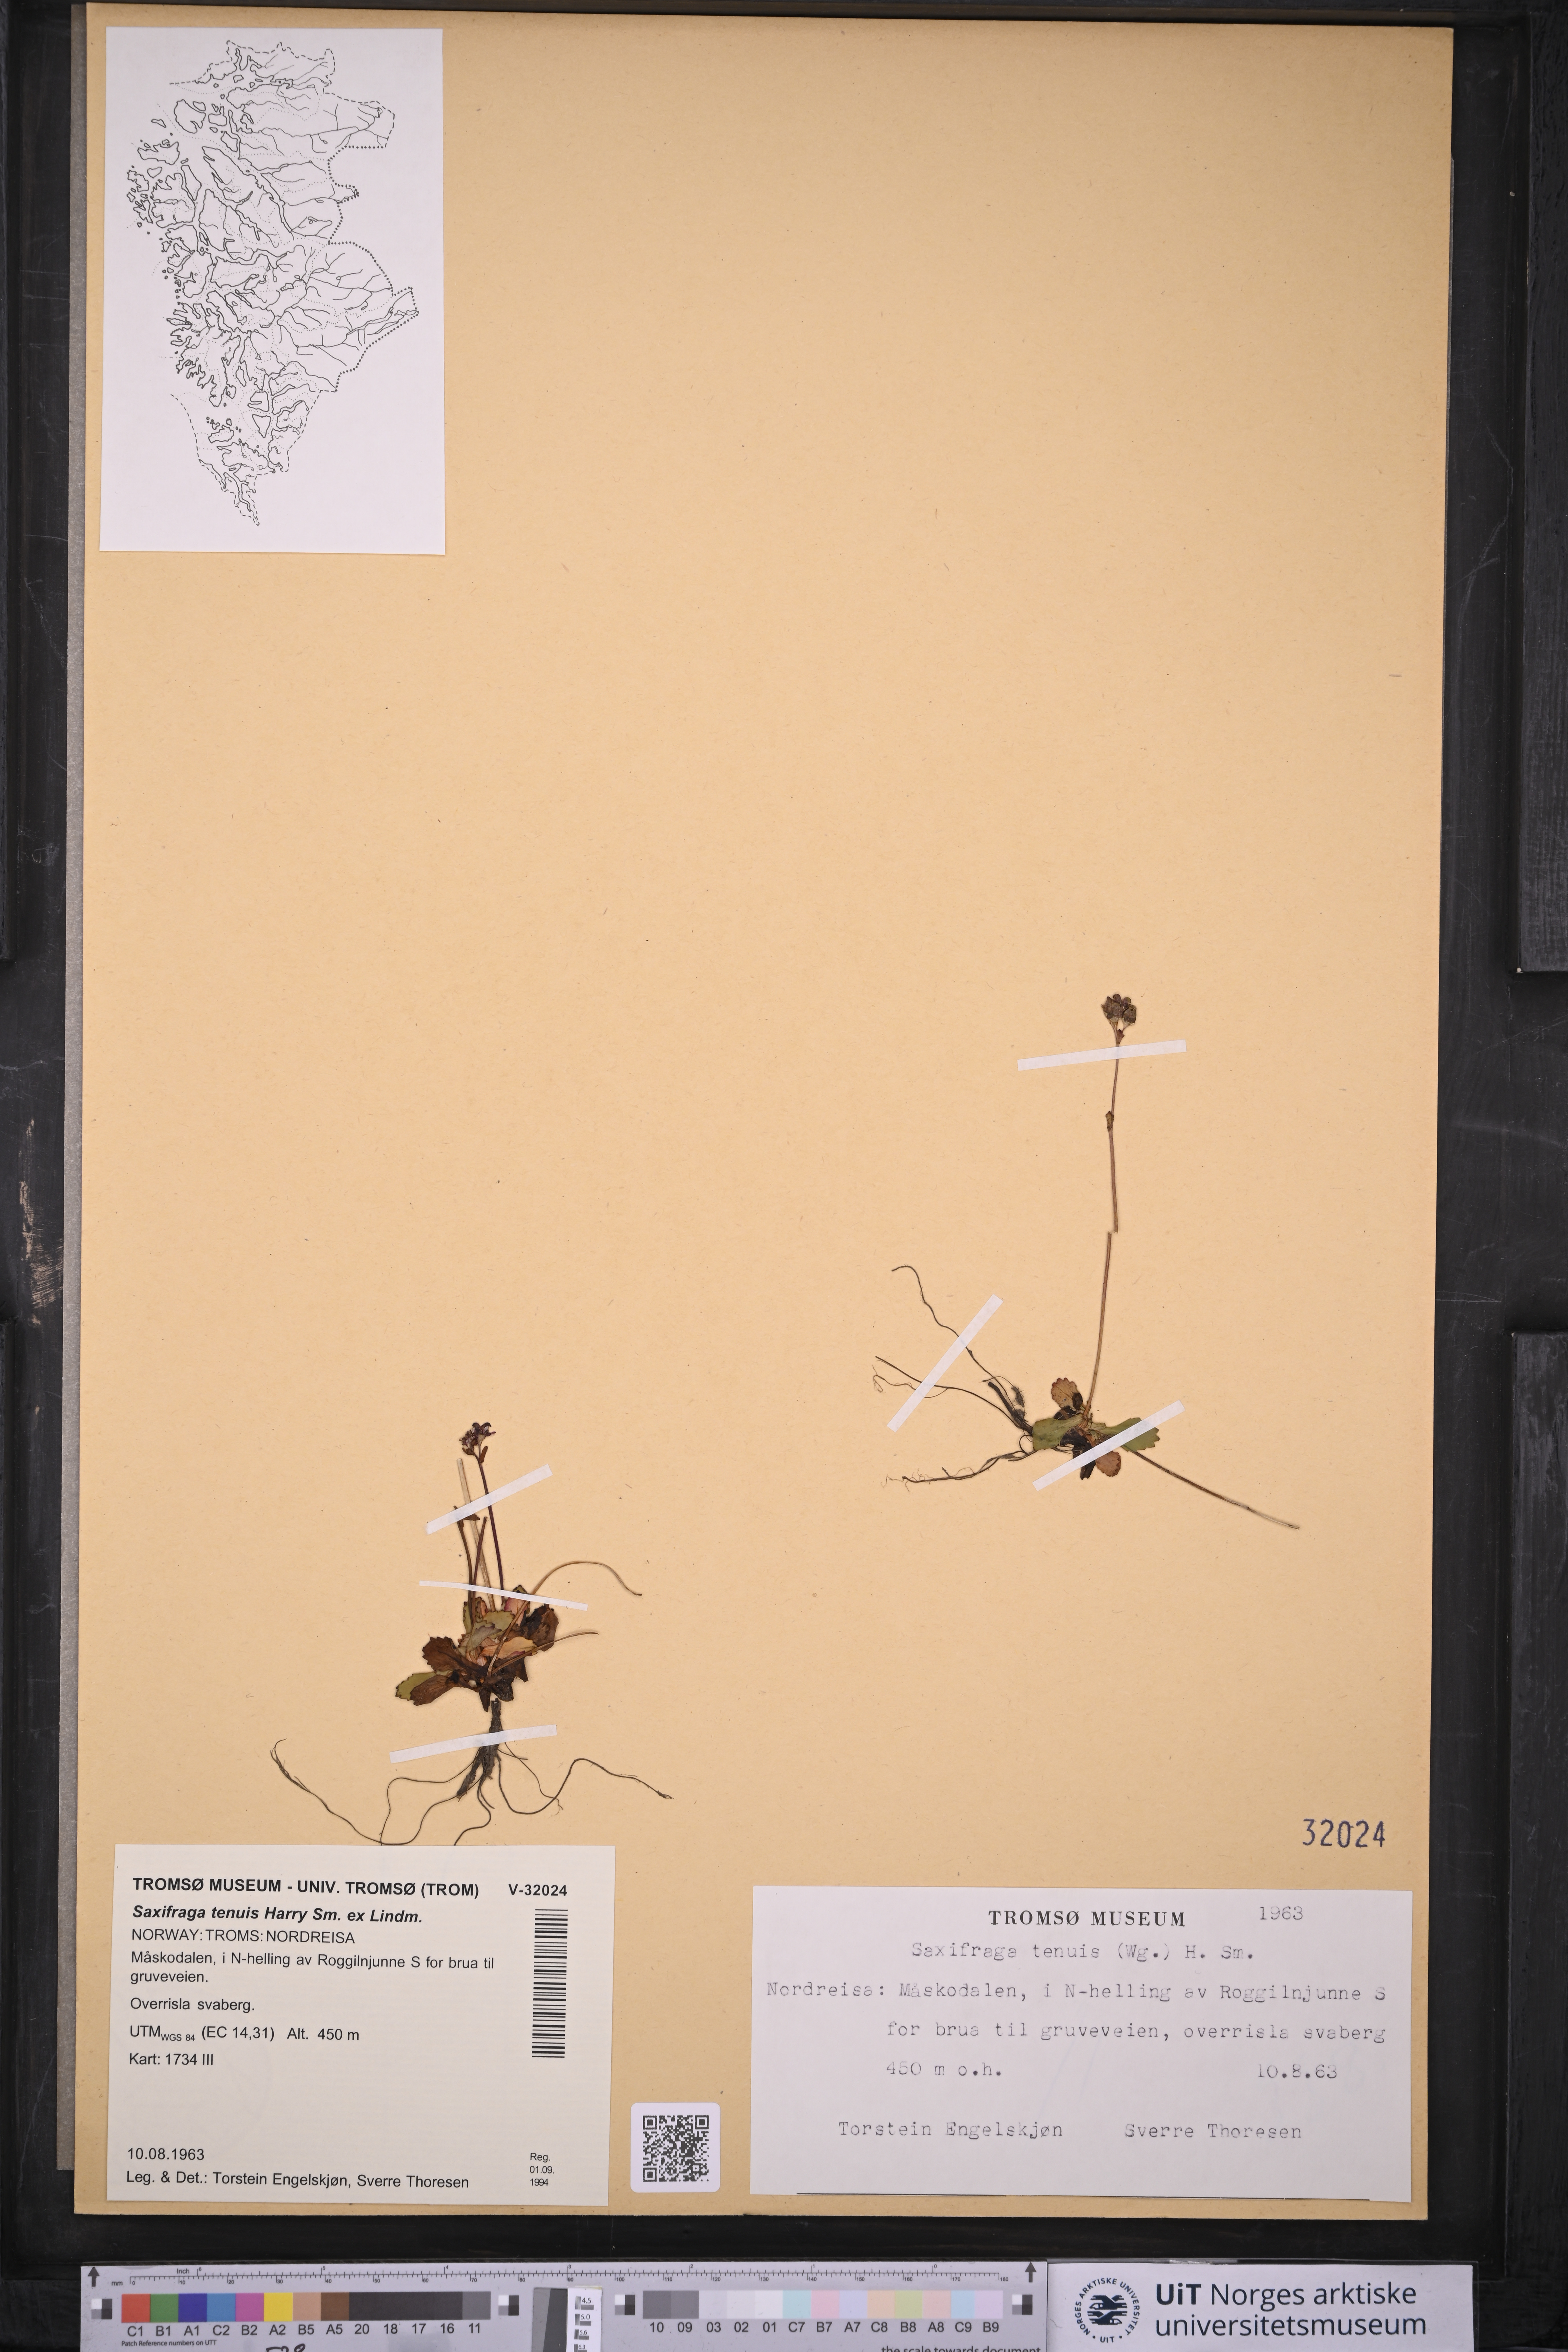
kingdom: Plantae
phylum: Tracheophyta
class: Magnoliopsida
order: Saxifragales
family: Saxifragaceae
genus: Micranthes
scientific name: Micranthes tenuis
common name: Ottertail pass saxifrage
